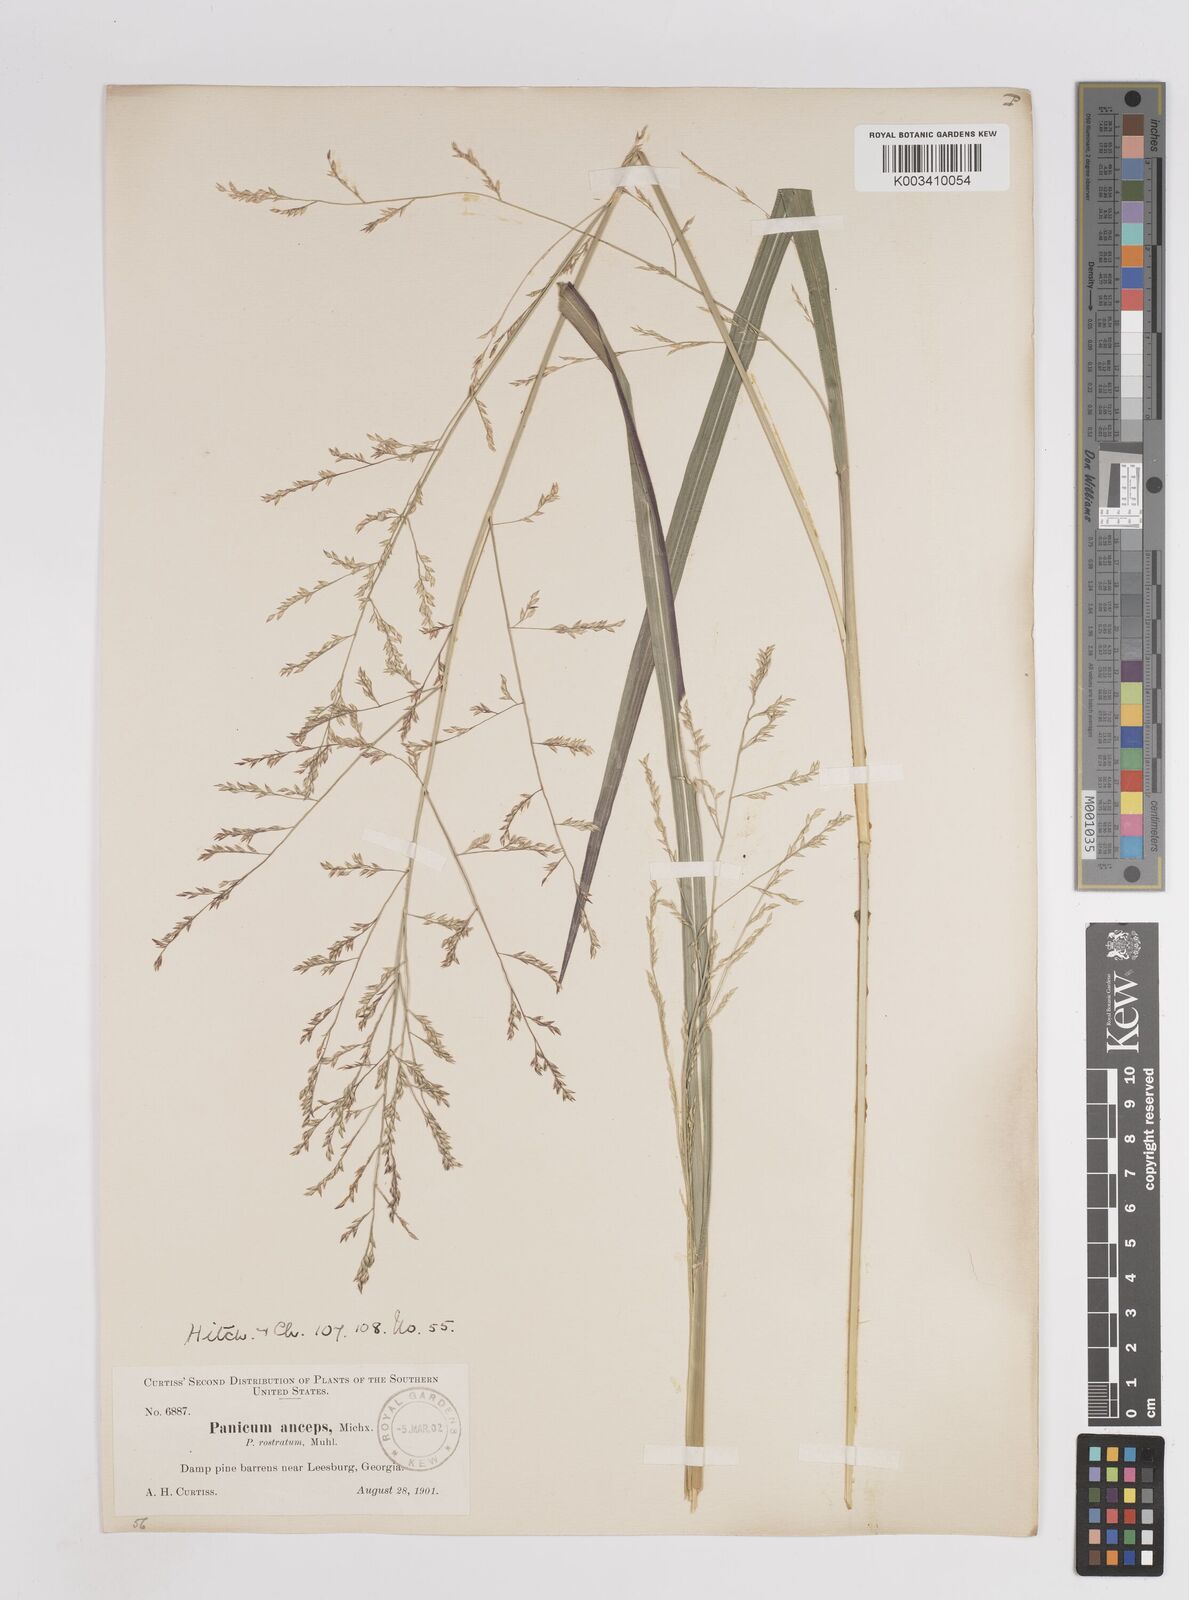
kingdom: Plantae
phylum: Tracheophyta
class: Liliopsida
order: Poales
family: Poaceae
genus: Coleataenia
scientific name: Coleataenia anceps
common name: Beaked panic grass
